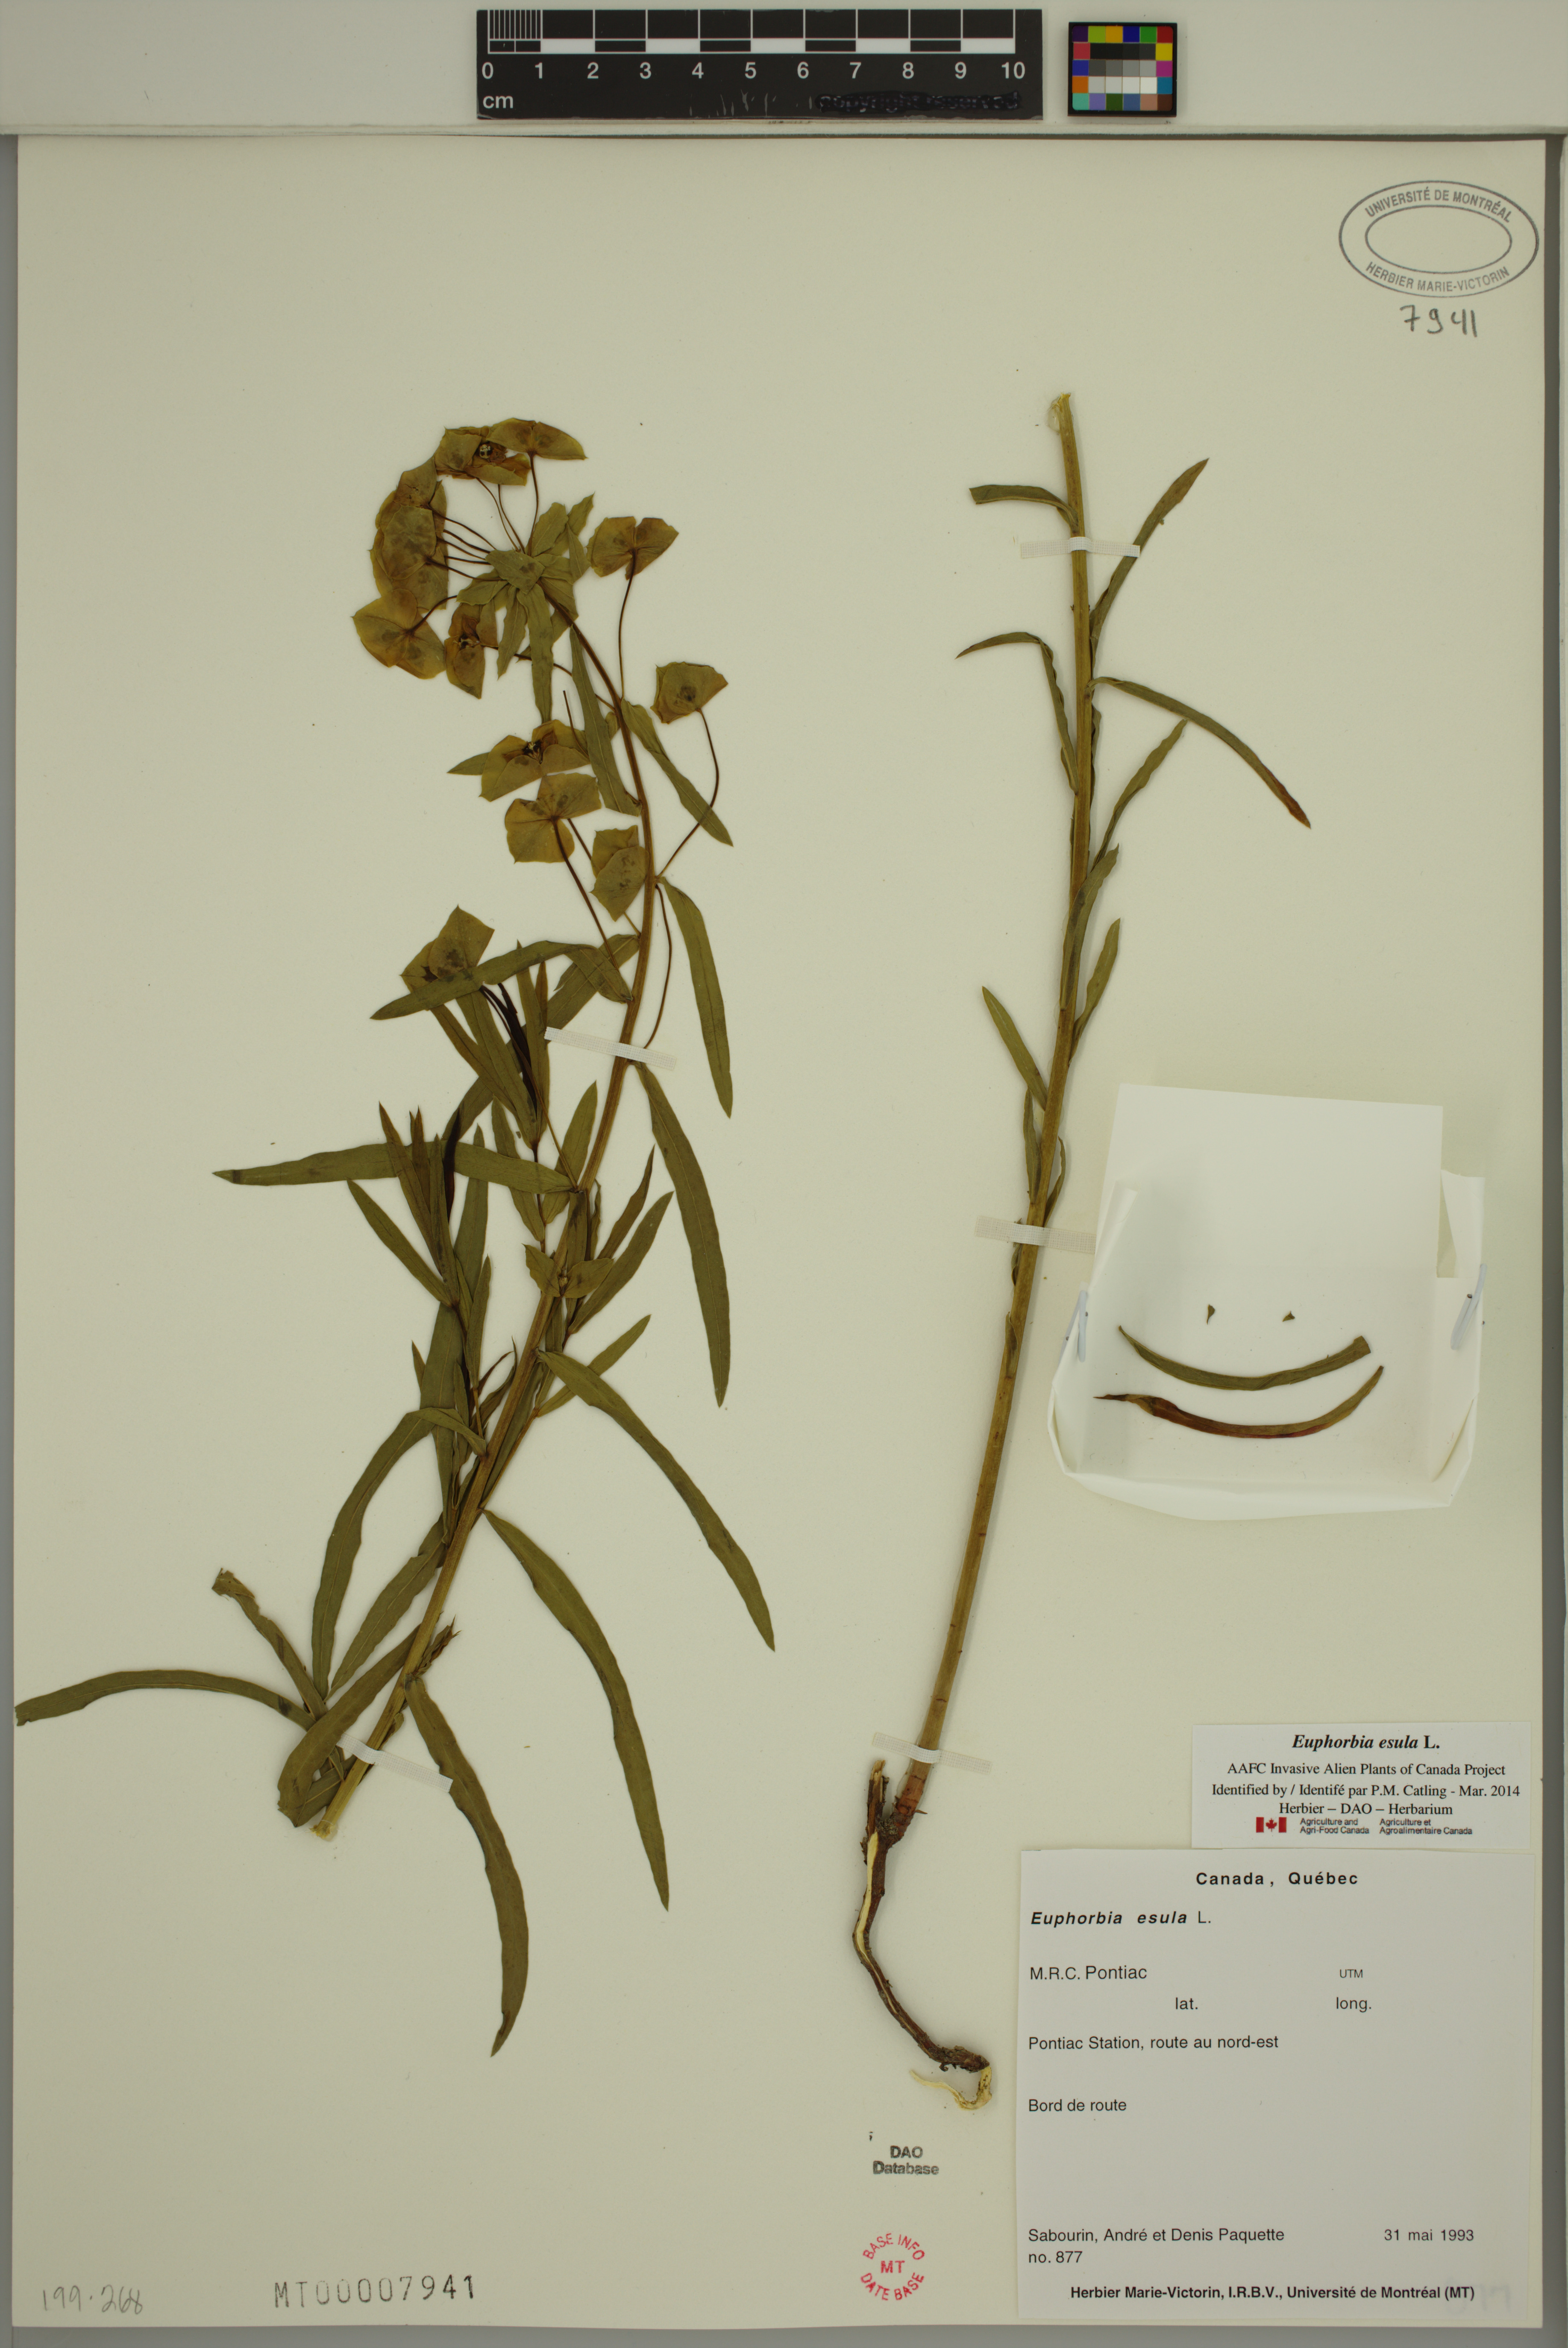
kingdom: Plantae
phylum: Tracheophyta
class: Magnoliopsida
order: Malpighiales
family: Euphorbiaceae
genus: Euphorbia
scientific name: Euphorbia esula
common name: Leafy spurge
